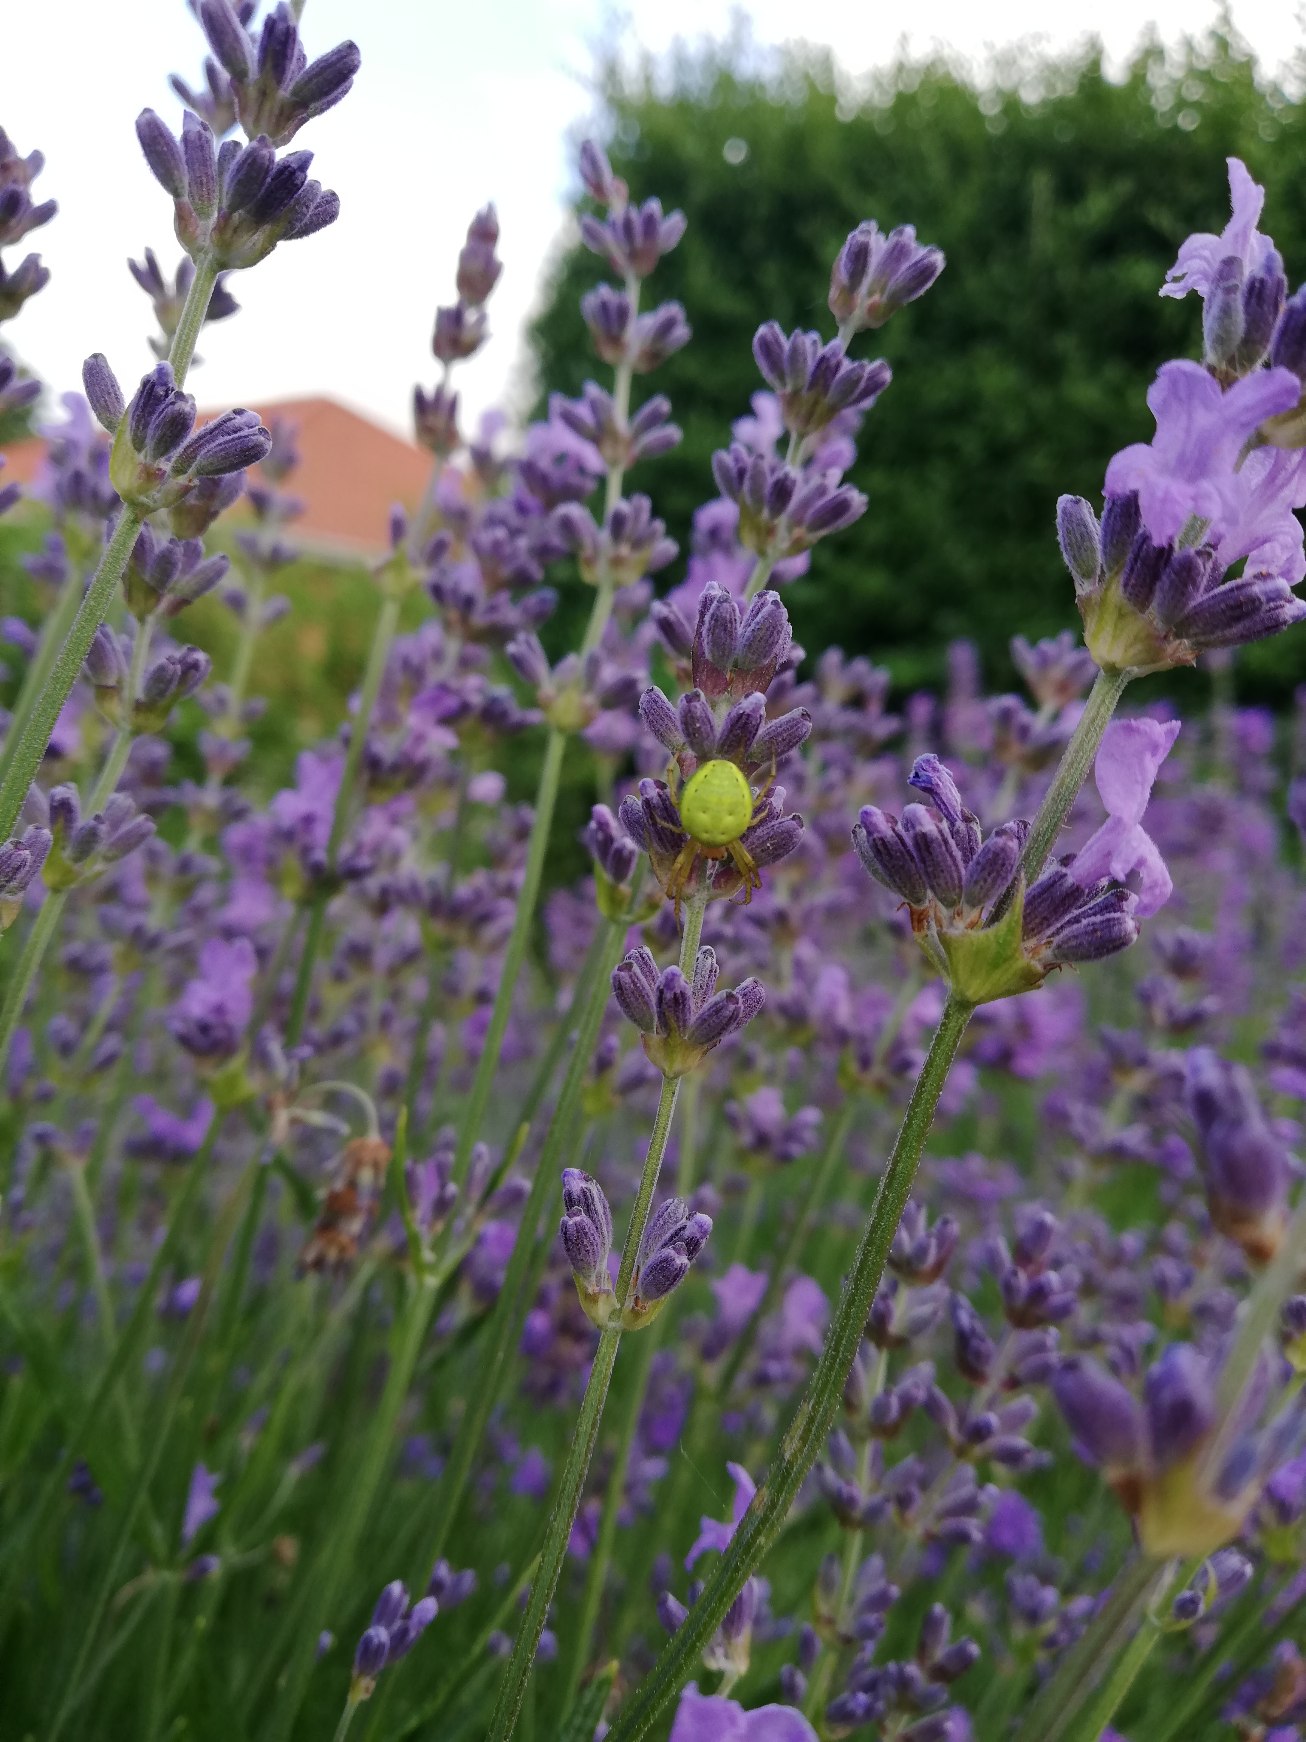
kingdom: Animalia
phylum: Arthropoda
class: Arachnida
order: Araneae
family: Araneidae
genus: Araniella
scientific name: Araniella
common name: Agurkeedderkopslægten
